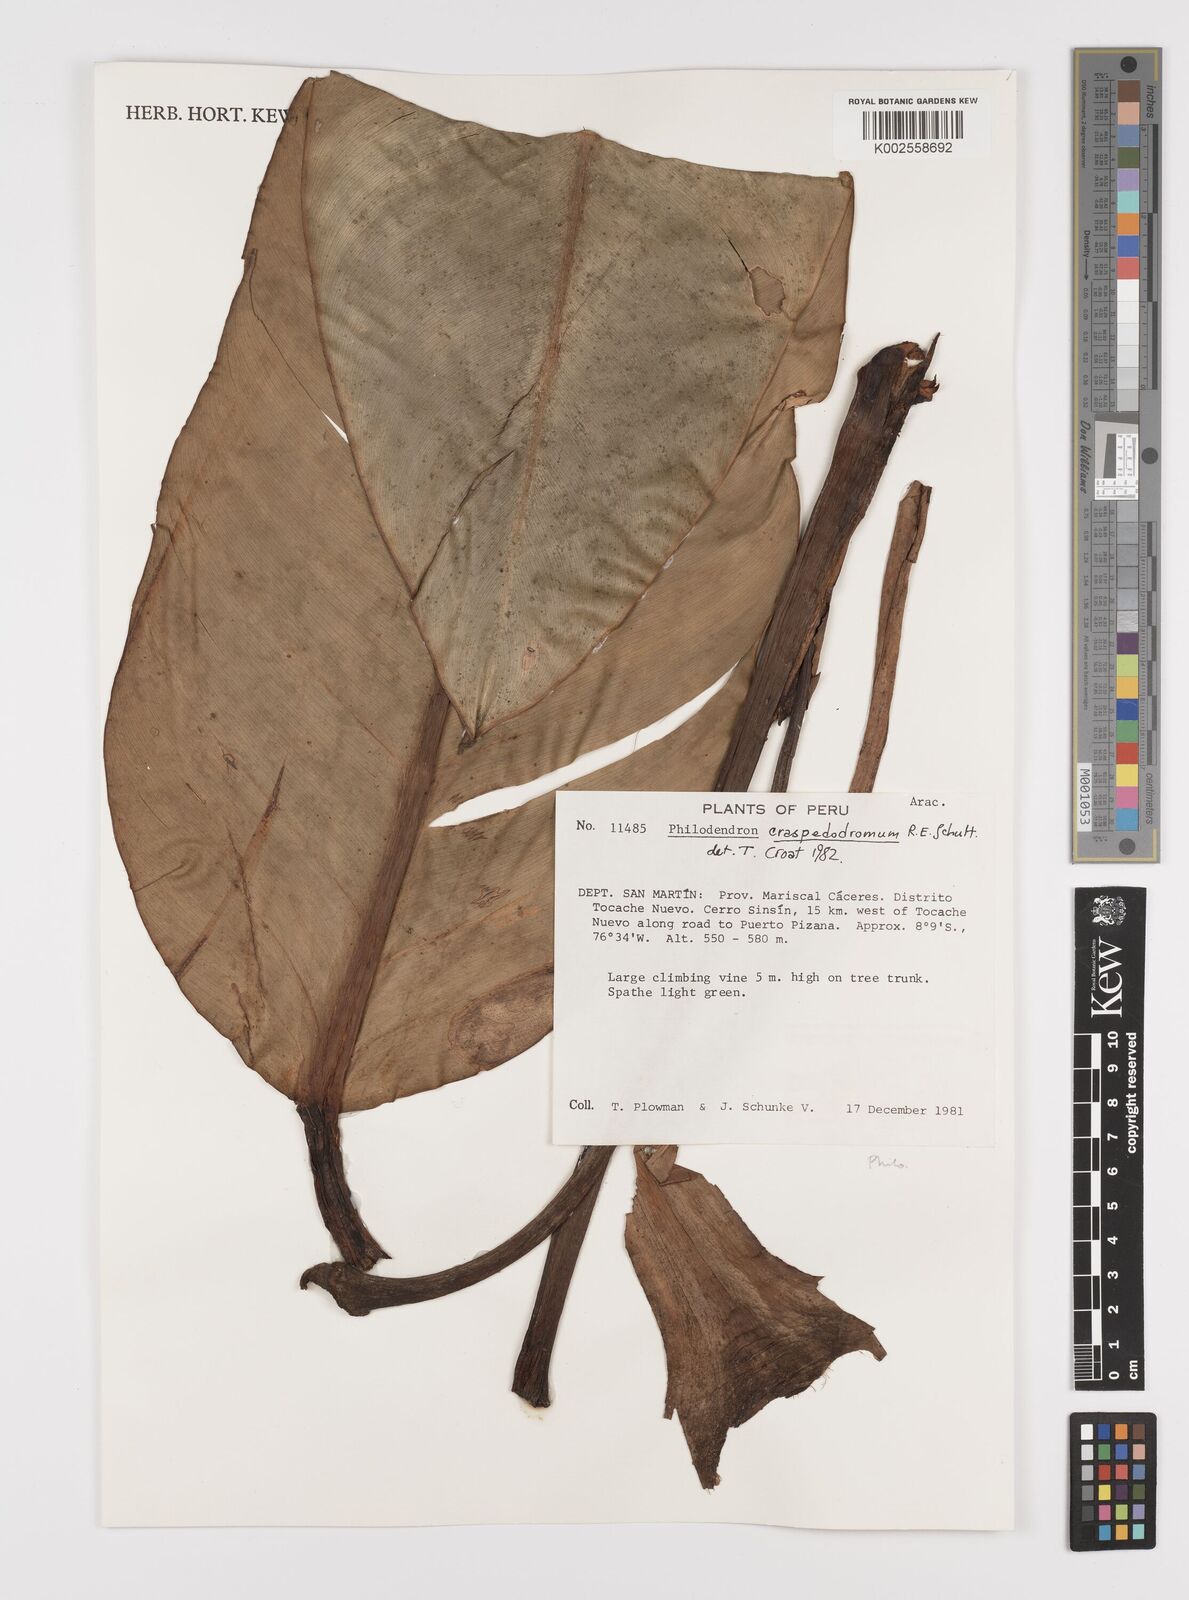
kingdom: Plantae
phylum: Tracheophyta
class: Liliopsida
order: Alismatales
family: Araceae
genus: Philodendron
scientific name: Philodendron craspedodromum
